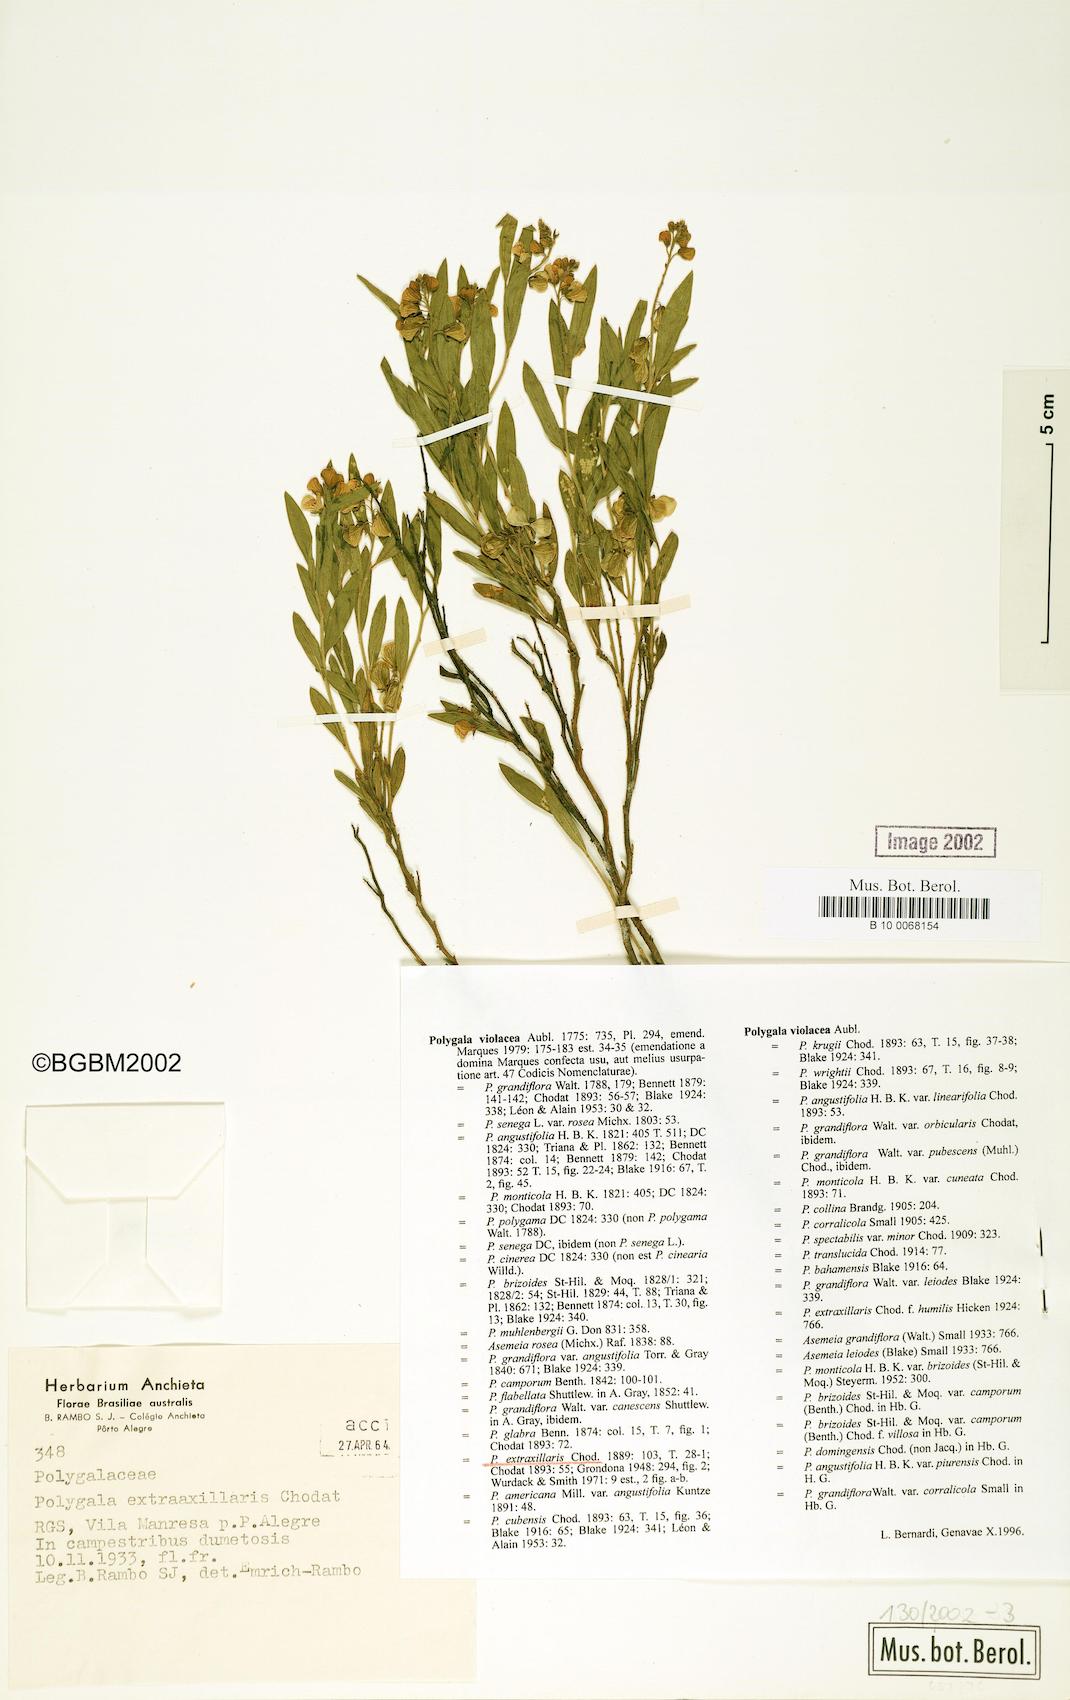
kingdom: Plantae
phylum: Tracheophyta
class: Magnoliopsida
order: Fabales
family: Polygalaceae
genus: Asemeia
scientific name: Asemeia extraaxillaris
